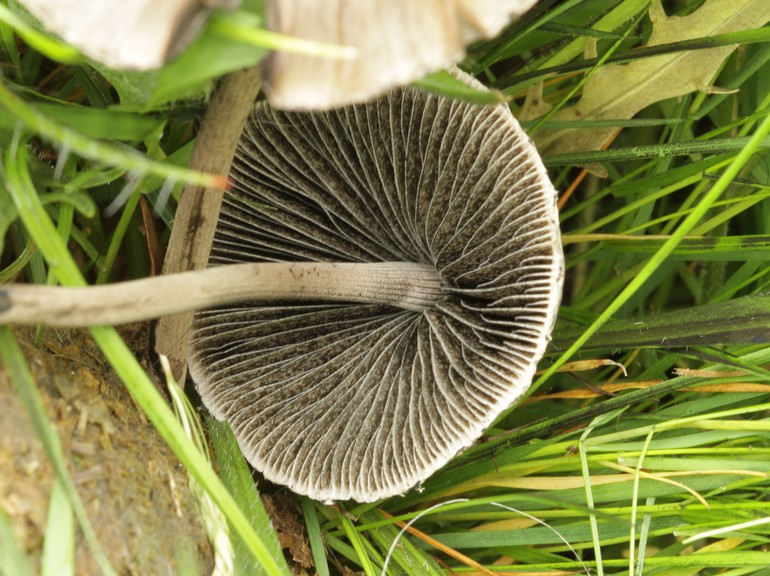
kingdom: Fungi
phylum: Basidiomycota
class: Agaricomycetes
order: Agaricales
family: Bolbitiaceae
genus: Panaeolus
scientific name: Panaeolus papilionaceus
